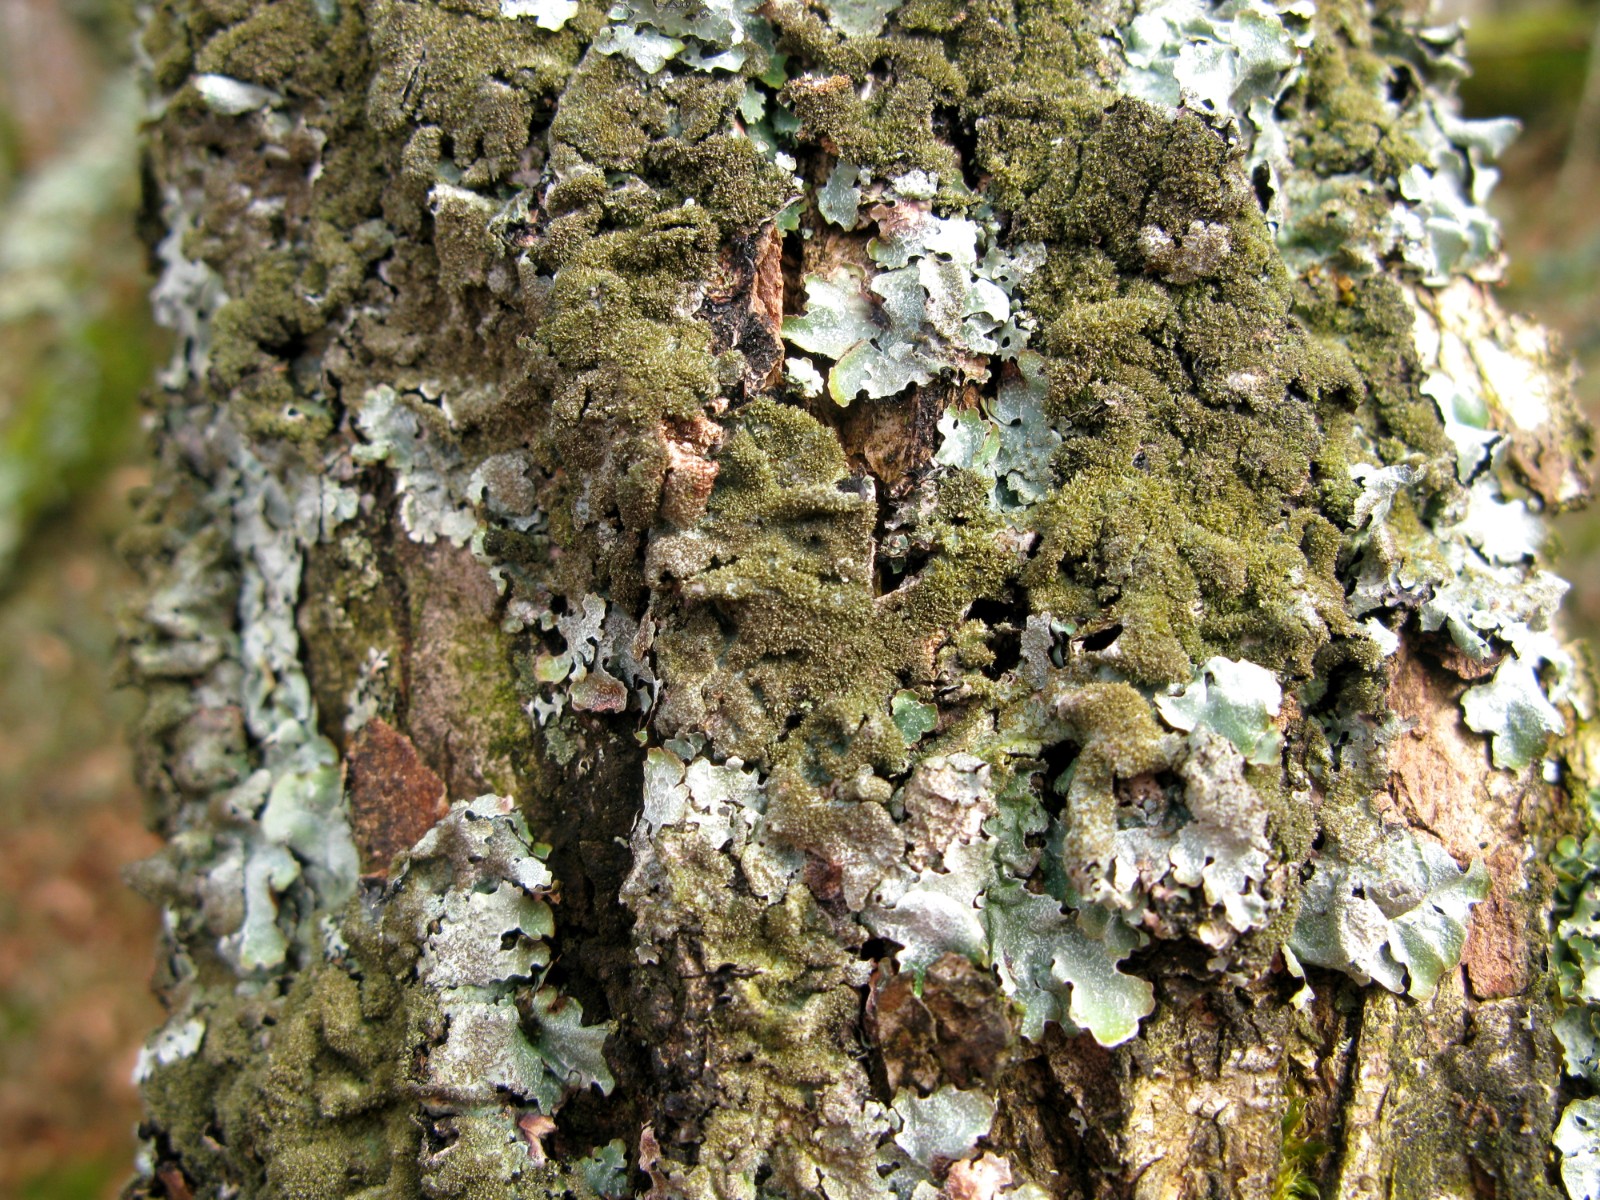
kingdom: Fungi
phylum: Ascomycota
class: Lecanoromycetes
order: Lecanorales
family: Parmeliaceae
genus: Parmelia
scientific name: Parmelia saxatilis
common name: farve-skållav
